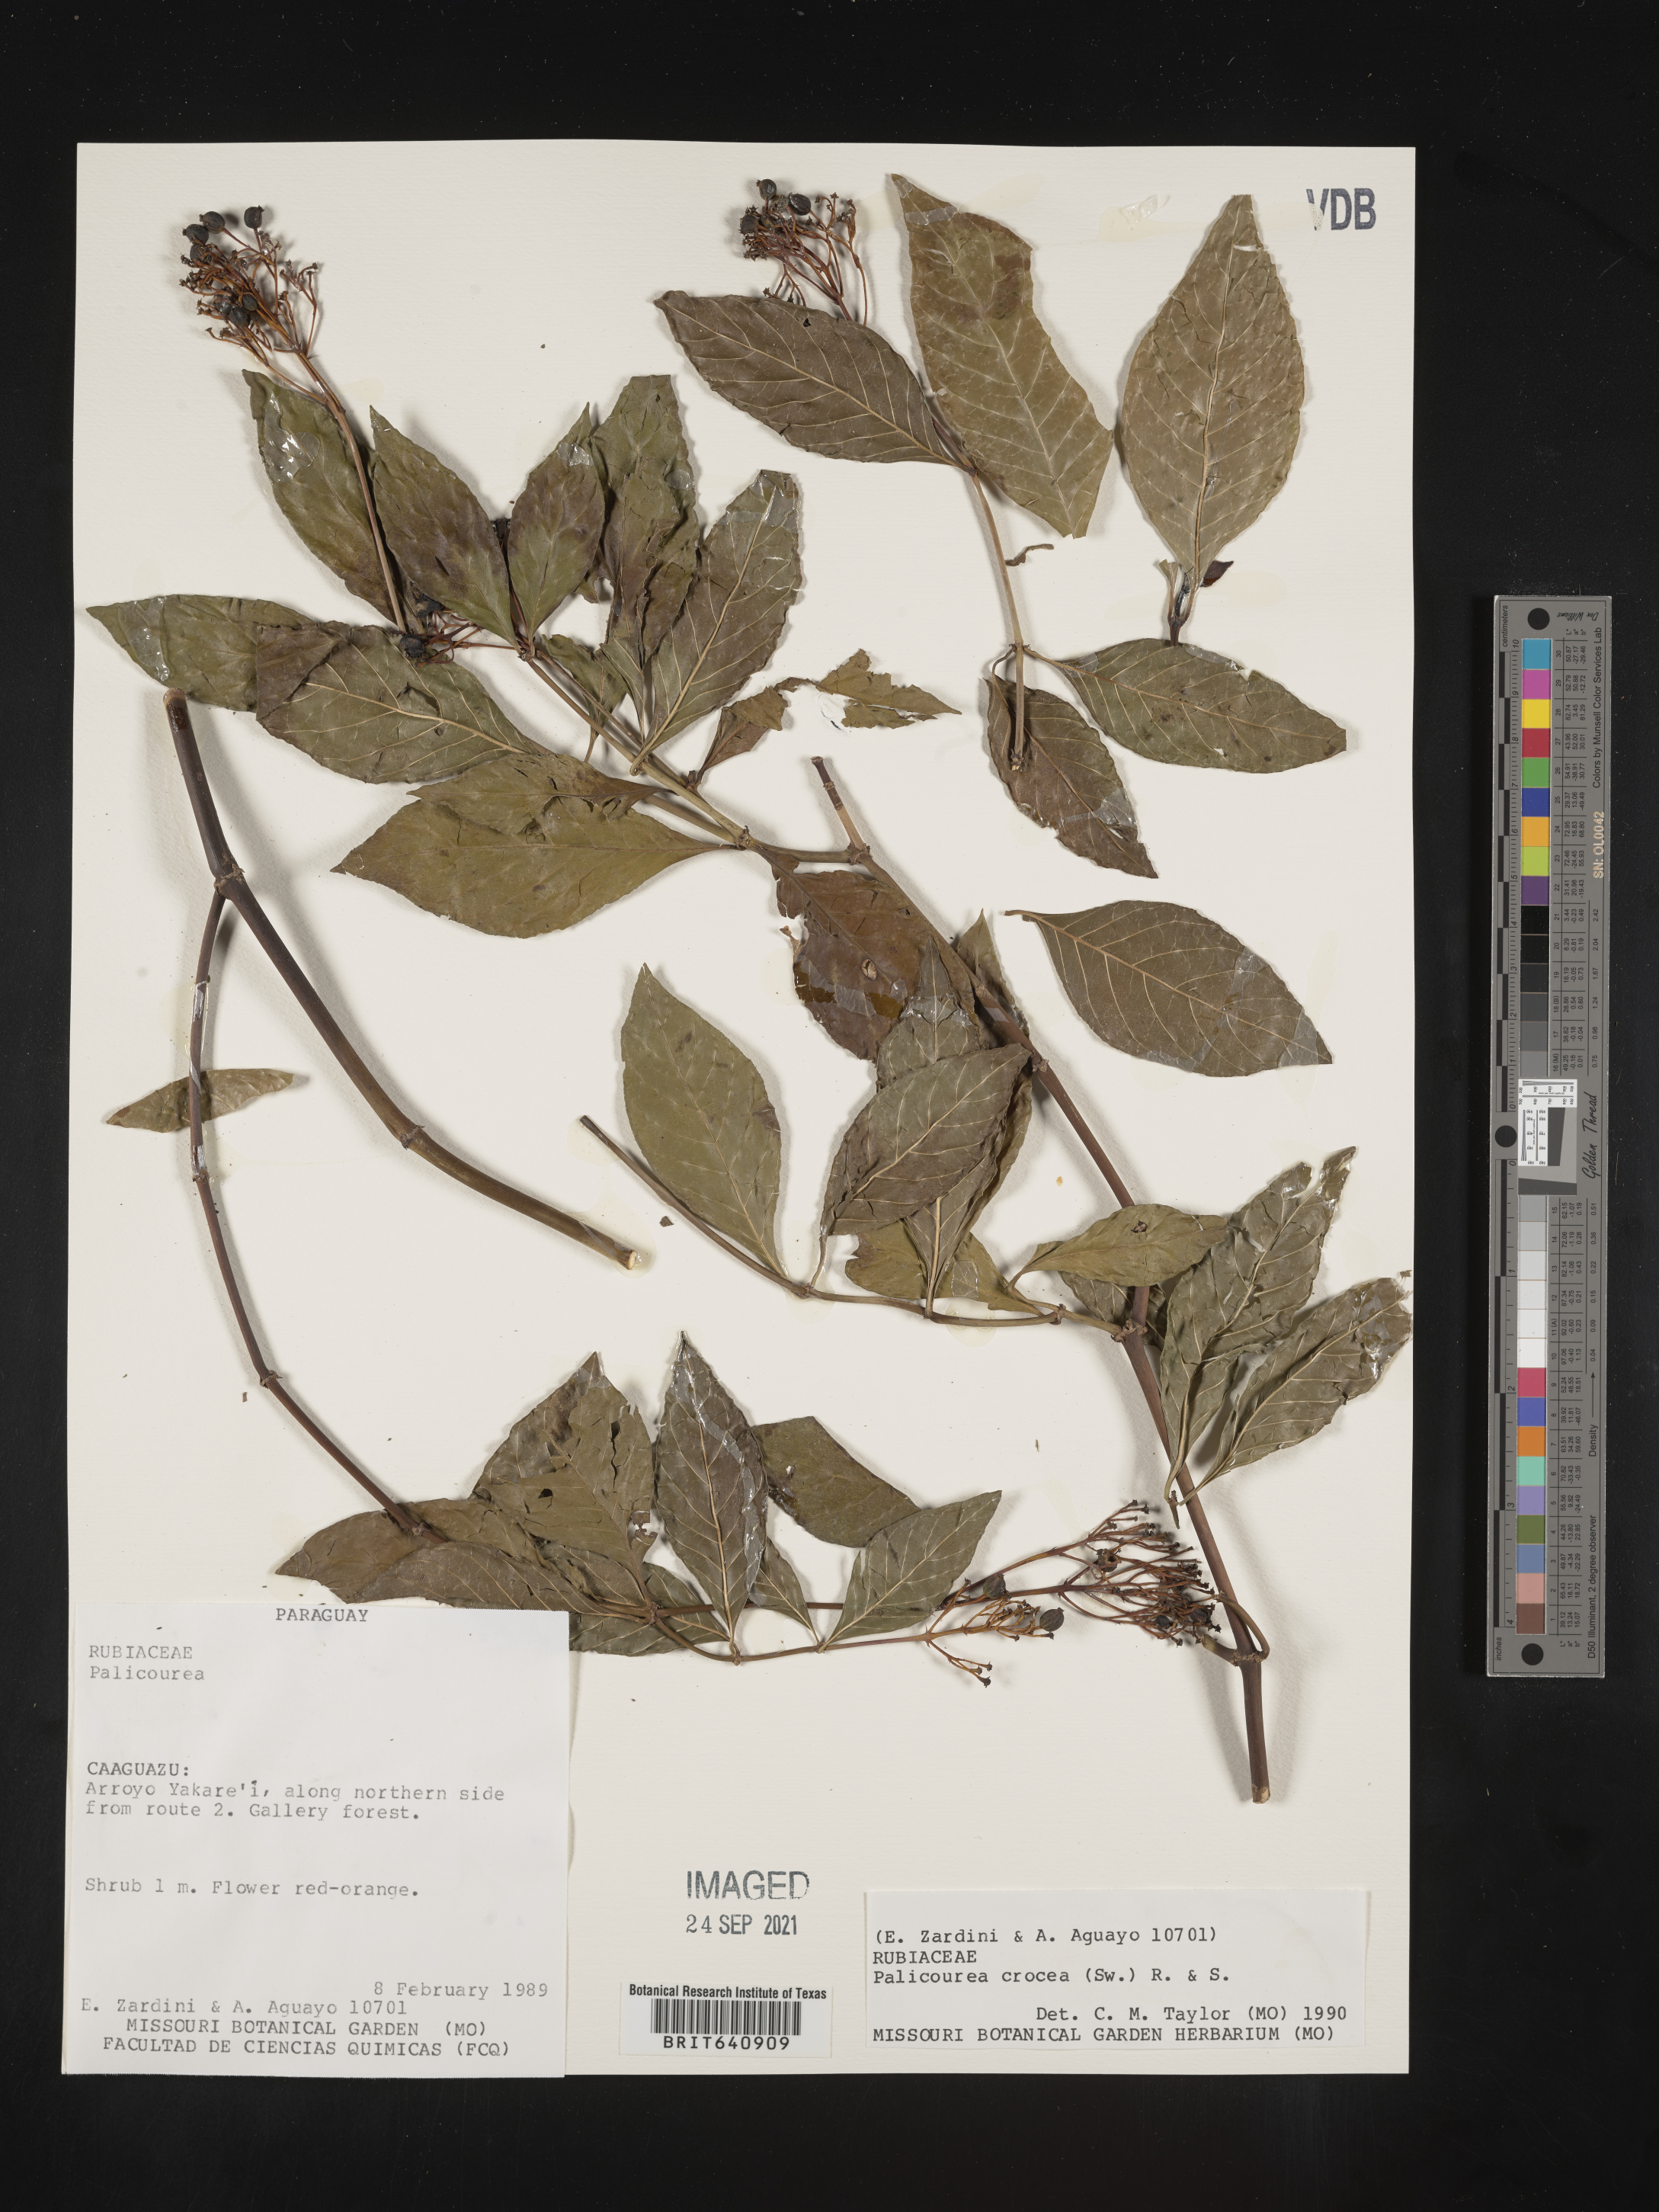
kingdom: Plantae
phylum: Tracheophyta
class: Magnoliopsida
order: Gentianales
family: Rubiaceae
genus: Palicourea
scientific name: Palicourea
